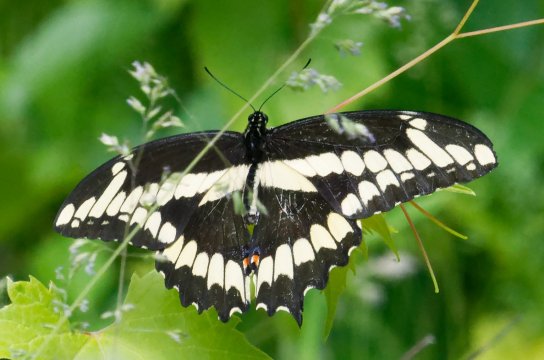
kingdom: Animalia
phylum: Arthropoda
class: Insecta
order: Lepidoptera
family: Papilionidae
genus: Papilio
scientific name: Papilio cresphontes
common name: Eastern Giant Swallowtail
